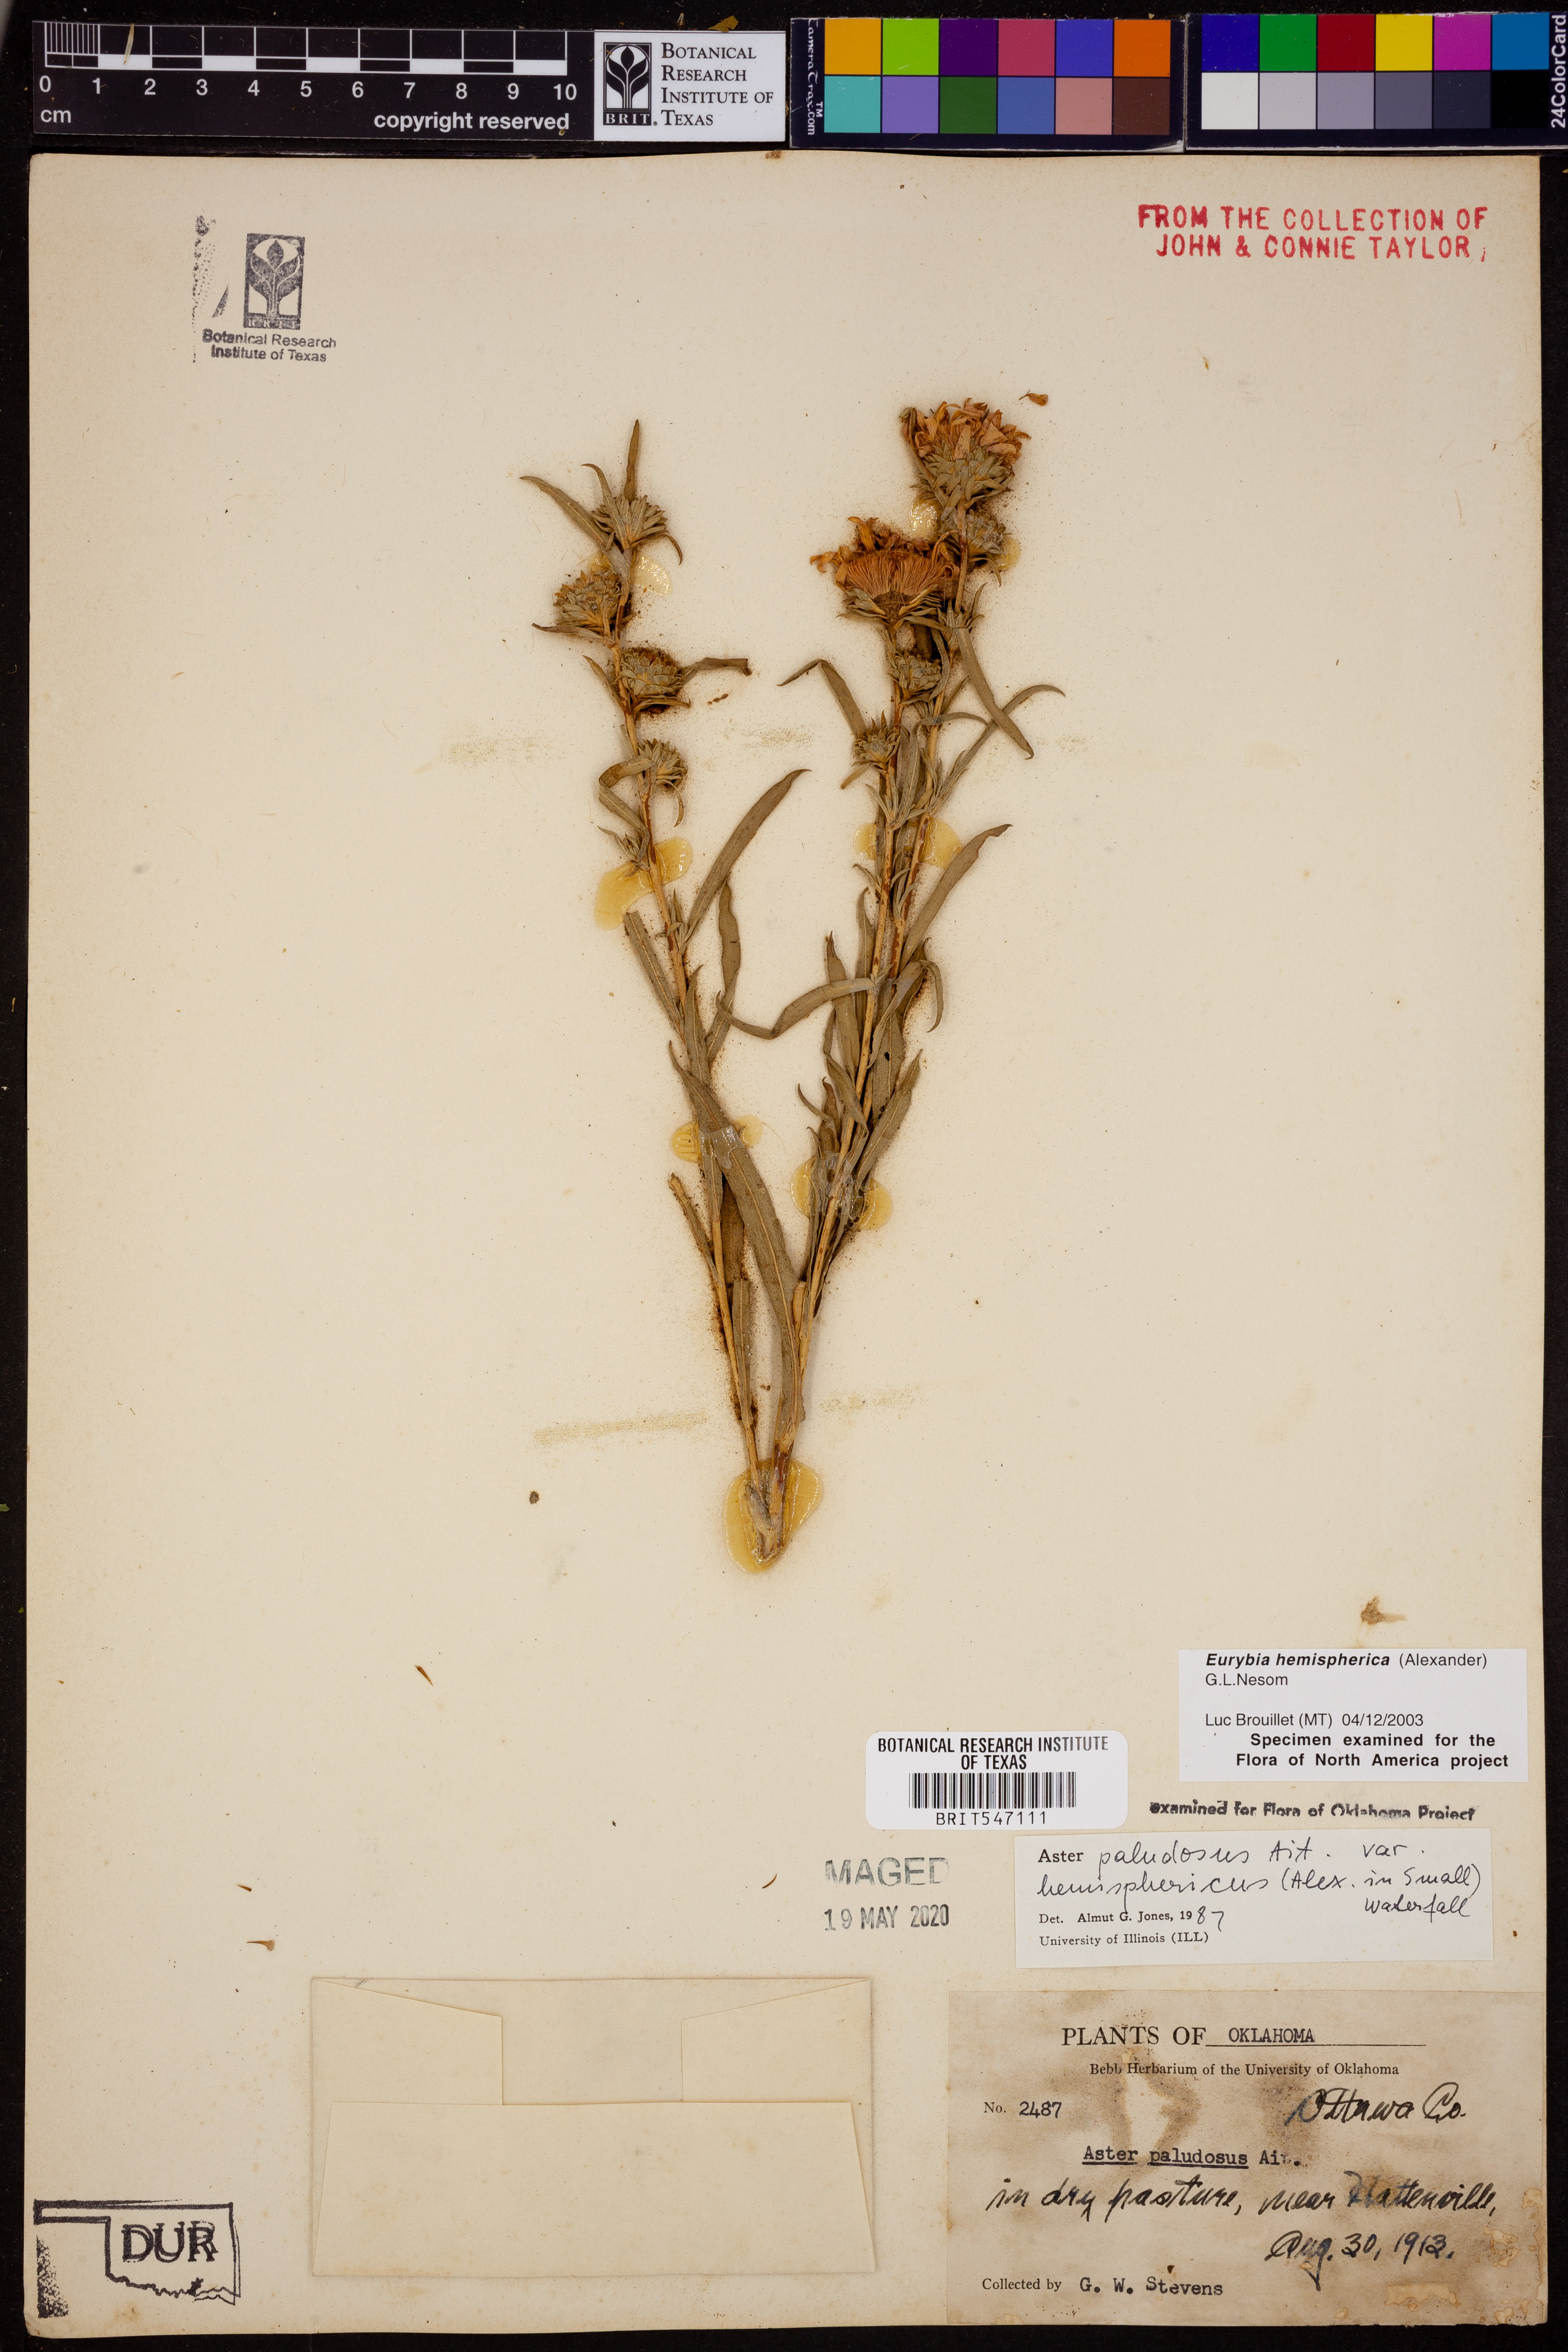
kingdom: Plantae
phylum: Tracheophyta
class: Magnoliopsida
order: Asterales
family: Asteraceae
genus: Eurybia
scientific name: Eurybia hemispherica
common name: Showy aster
